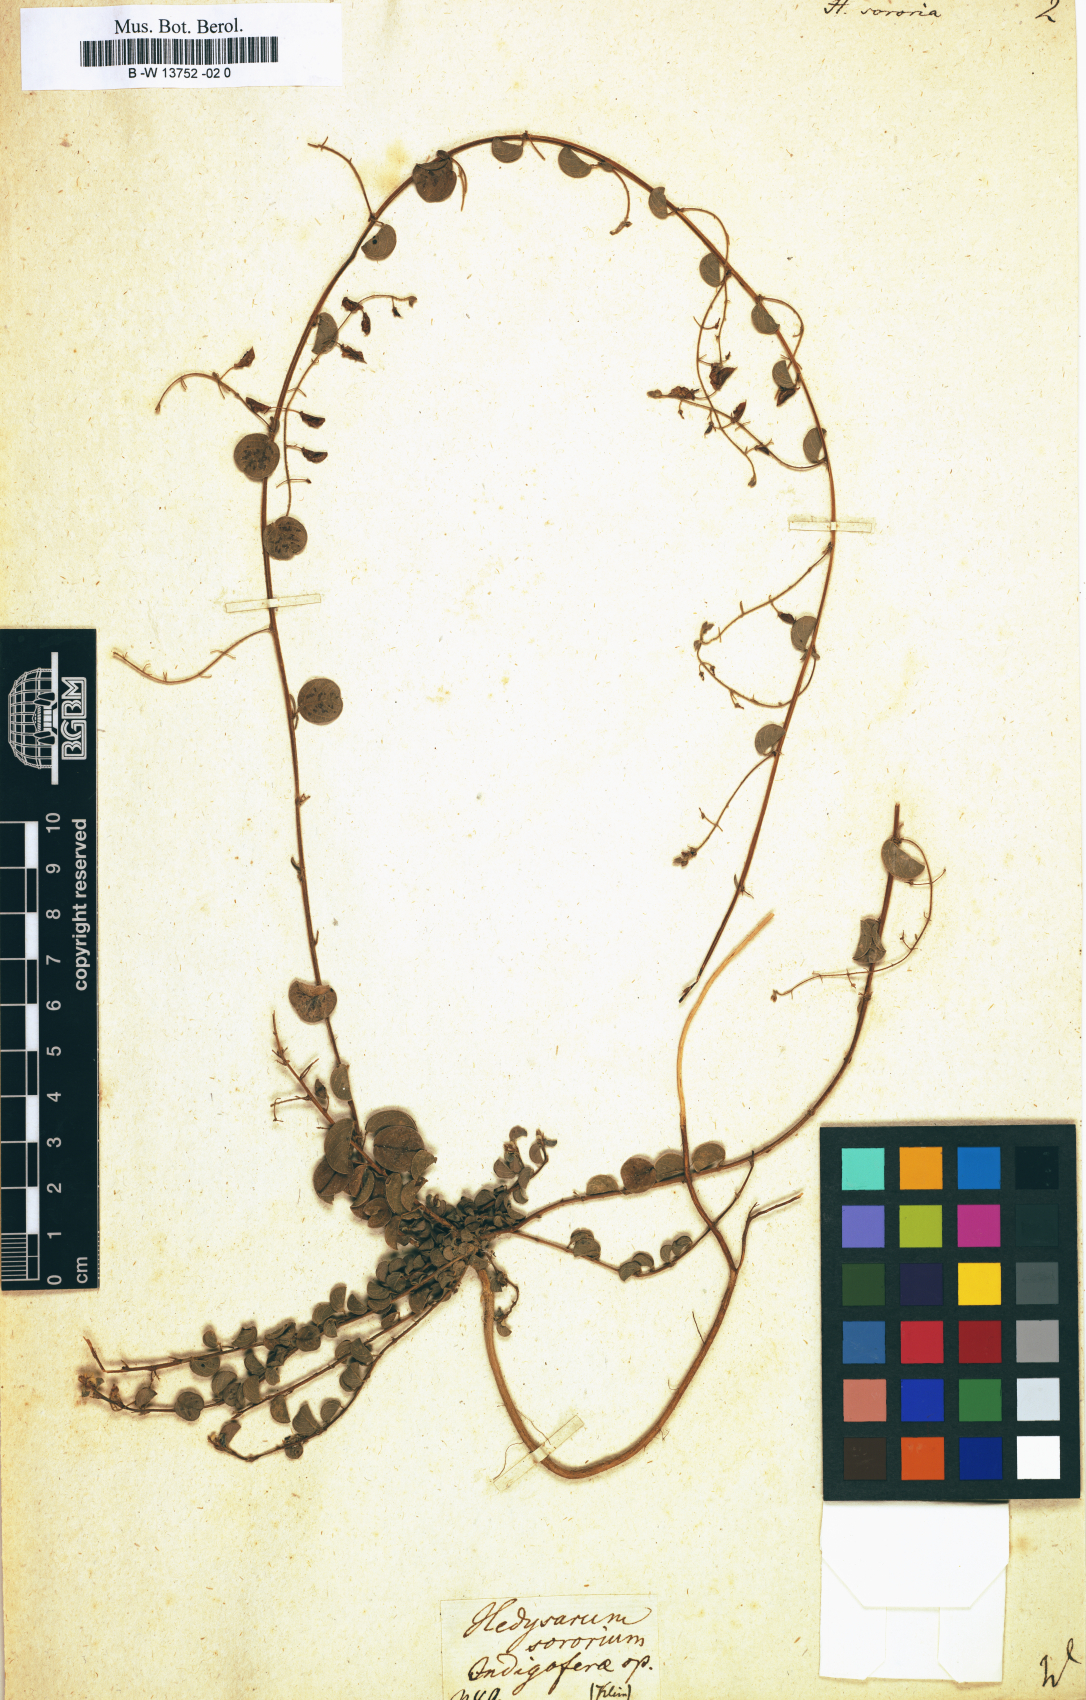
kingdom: Plantae
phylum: Tracheophyta
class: Magnoliopsida
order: Fabales
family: Fabaceae
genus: Eleiotis
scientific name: Eleiotis sororia
